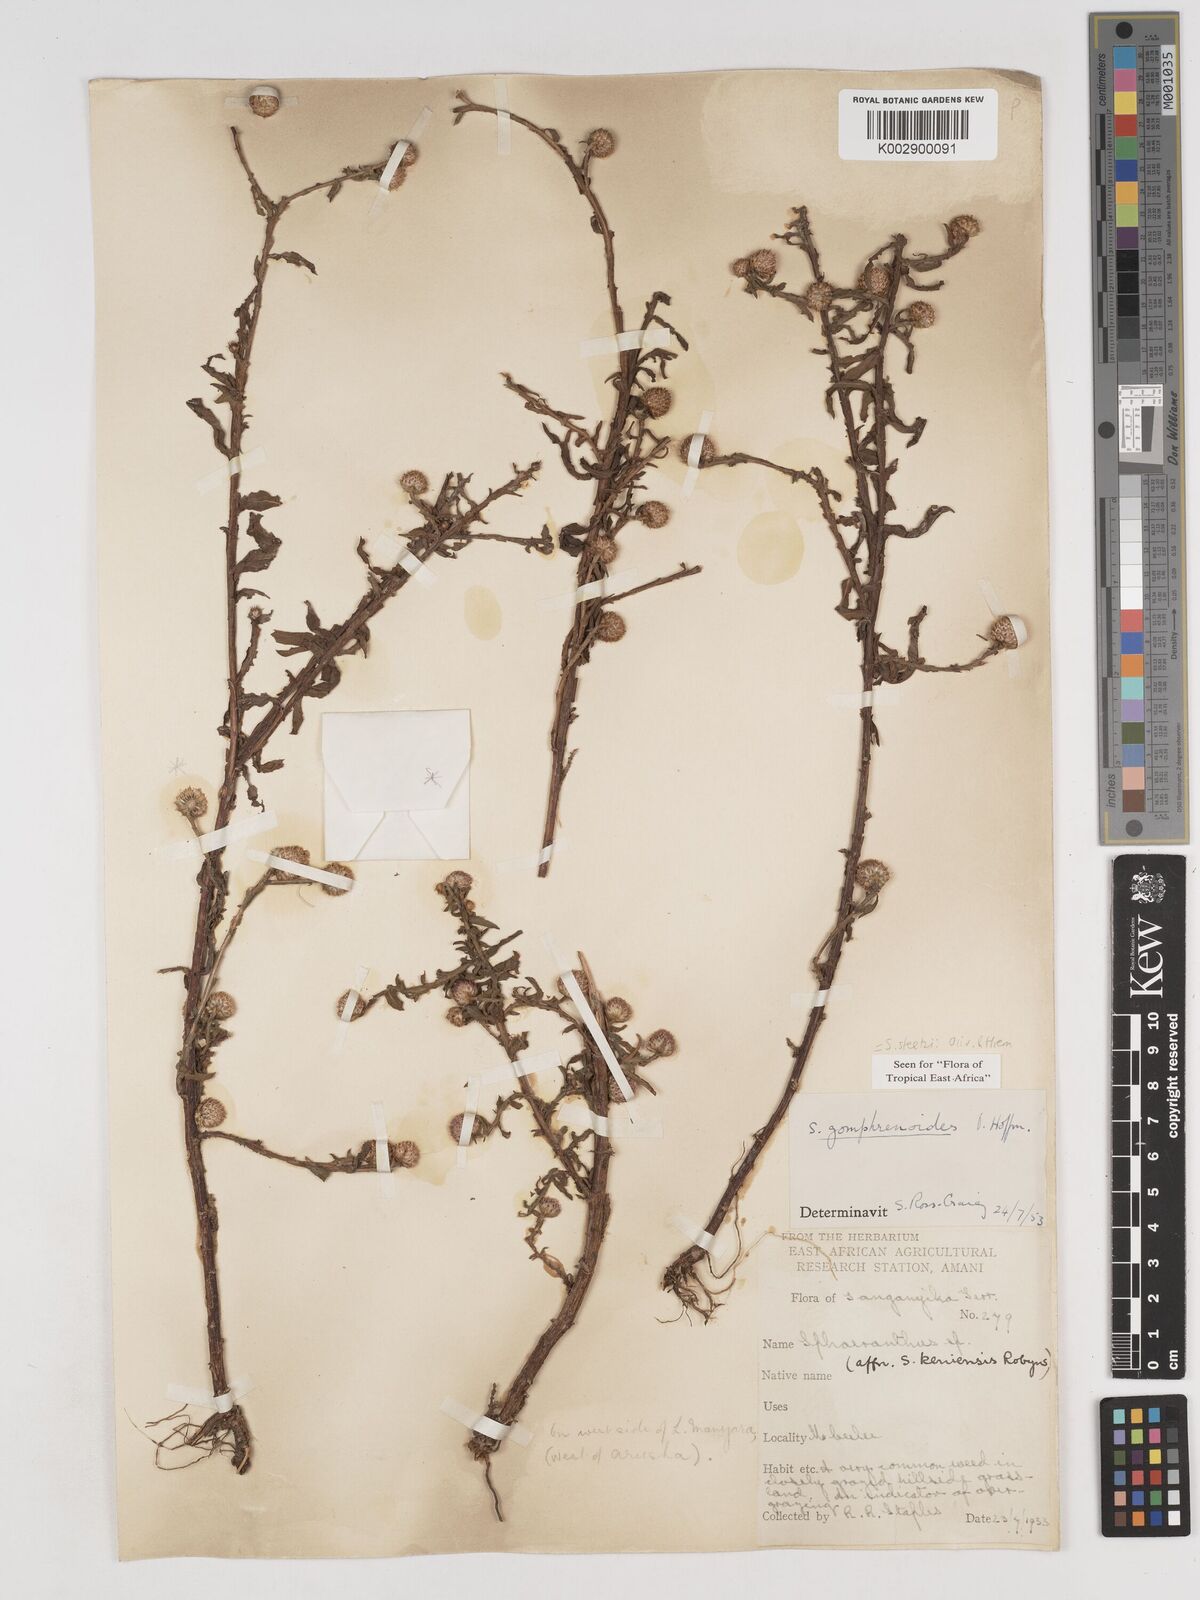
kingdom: Plantae
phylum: Tracheophyta
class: Magnoliopsida
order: Asterales
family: Asteraceae
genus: Sphaeranthus
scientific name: Sphaeranthus steetzii
